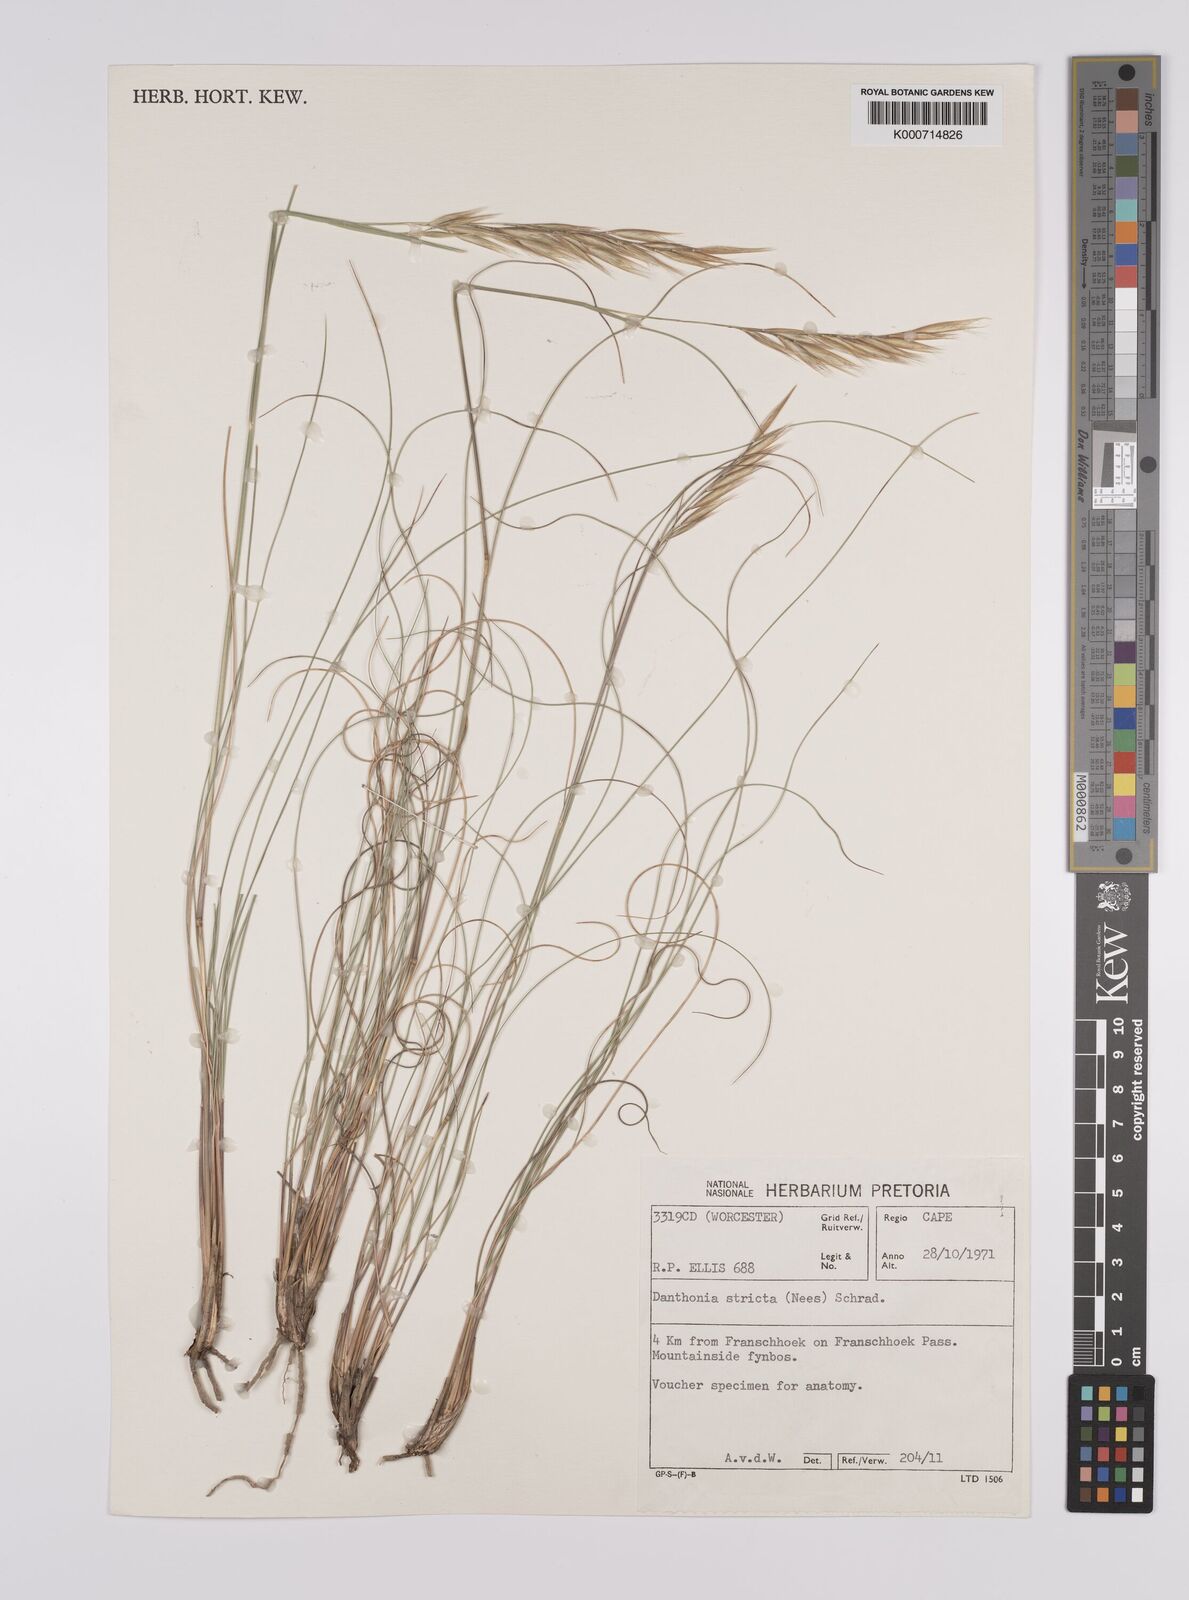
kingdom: Plantae
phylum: Tracheophyta
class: Liliopsida
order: Poales
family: Poaceae
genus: Rytidosperma
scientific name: Rytidosperma
